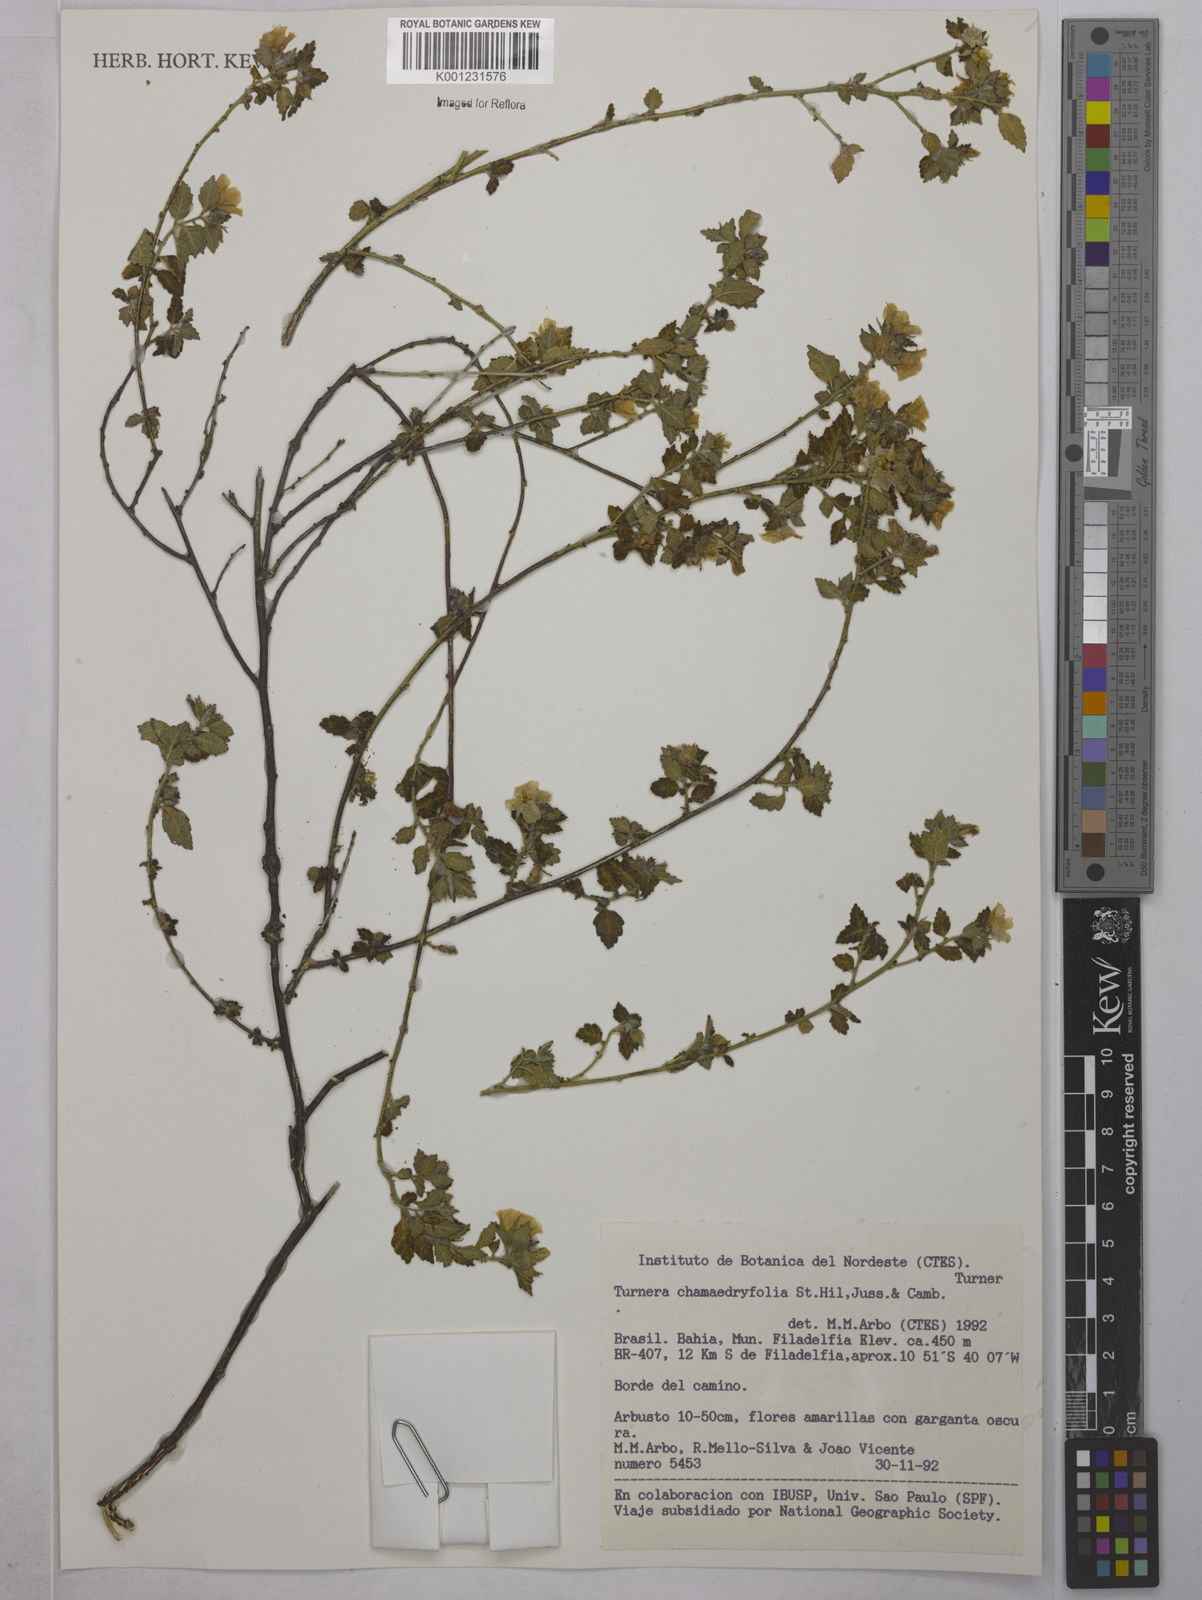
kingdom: Plantae
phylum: Tracheophyta
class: Magnoliopsida
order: Malpighiales
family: Turneraceae
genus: Turnera
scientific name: Turnera chamaedrifolia
